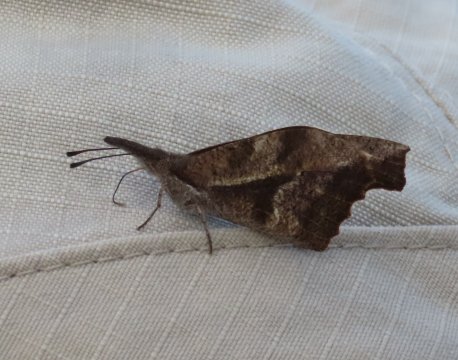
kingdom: Animalia
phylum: Arthropoda
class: Insecta
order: Lepidoptera
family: Nymphalidae
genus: Libytheana
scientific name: Libytheana carinenta
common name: American Snout
